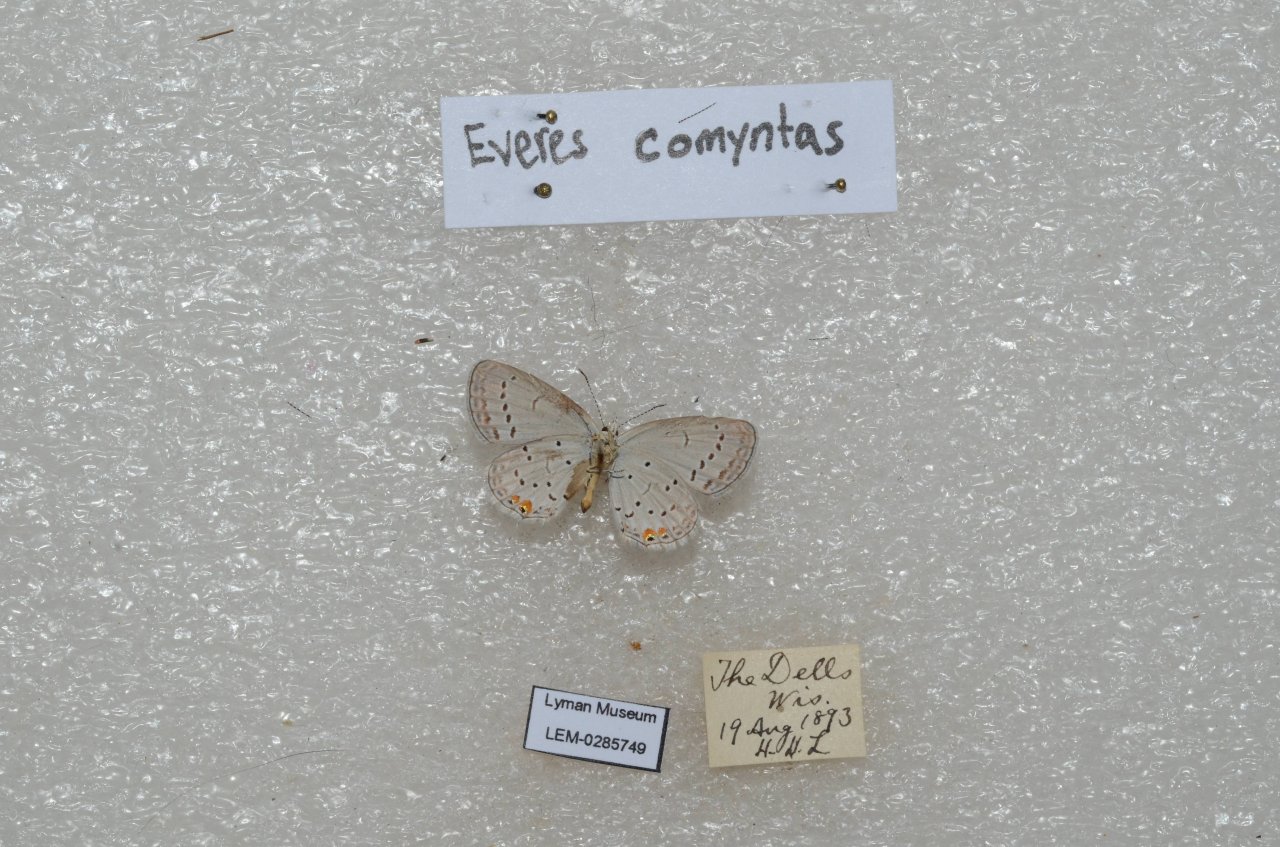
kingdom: Animalia
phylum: Arthropoda
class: Insecta
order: Lepidoptera
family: Lycaenidae
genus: Elkalyce
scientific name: Elkalyce comyntas
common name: Eastern Tailed-Blue
